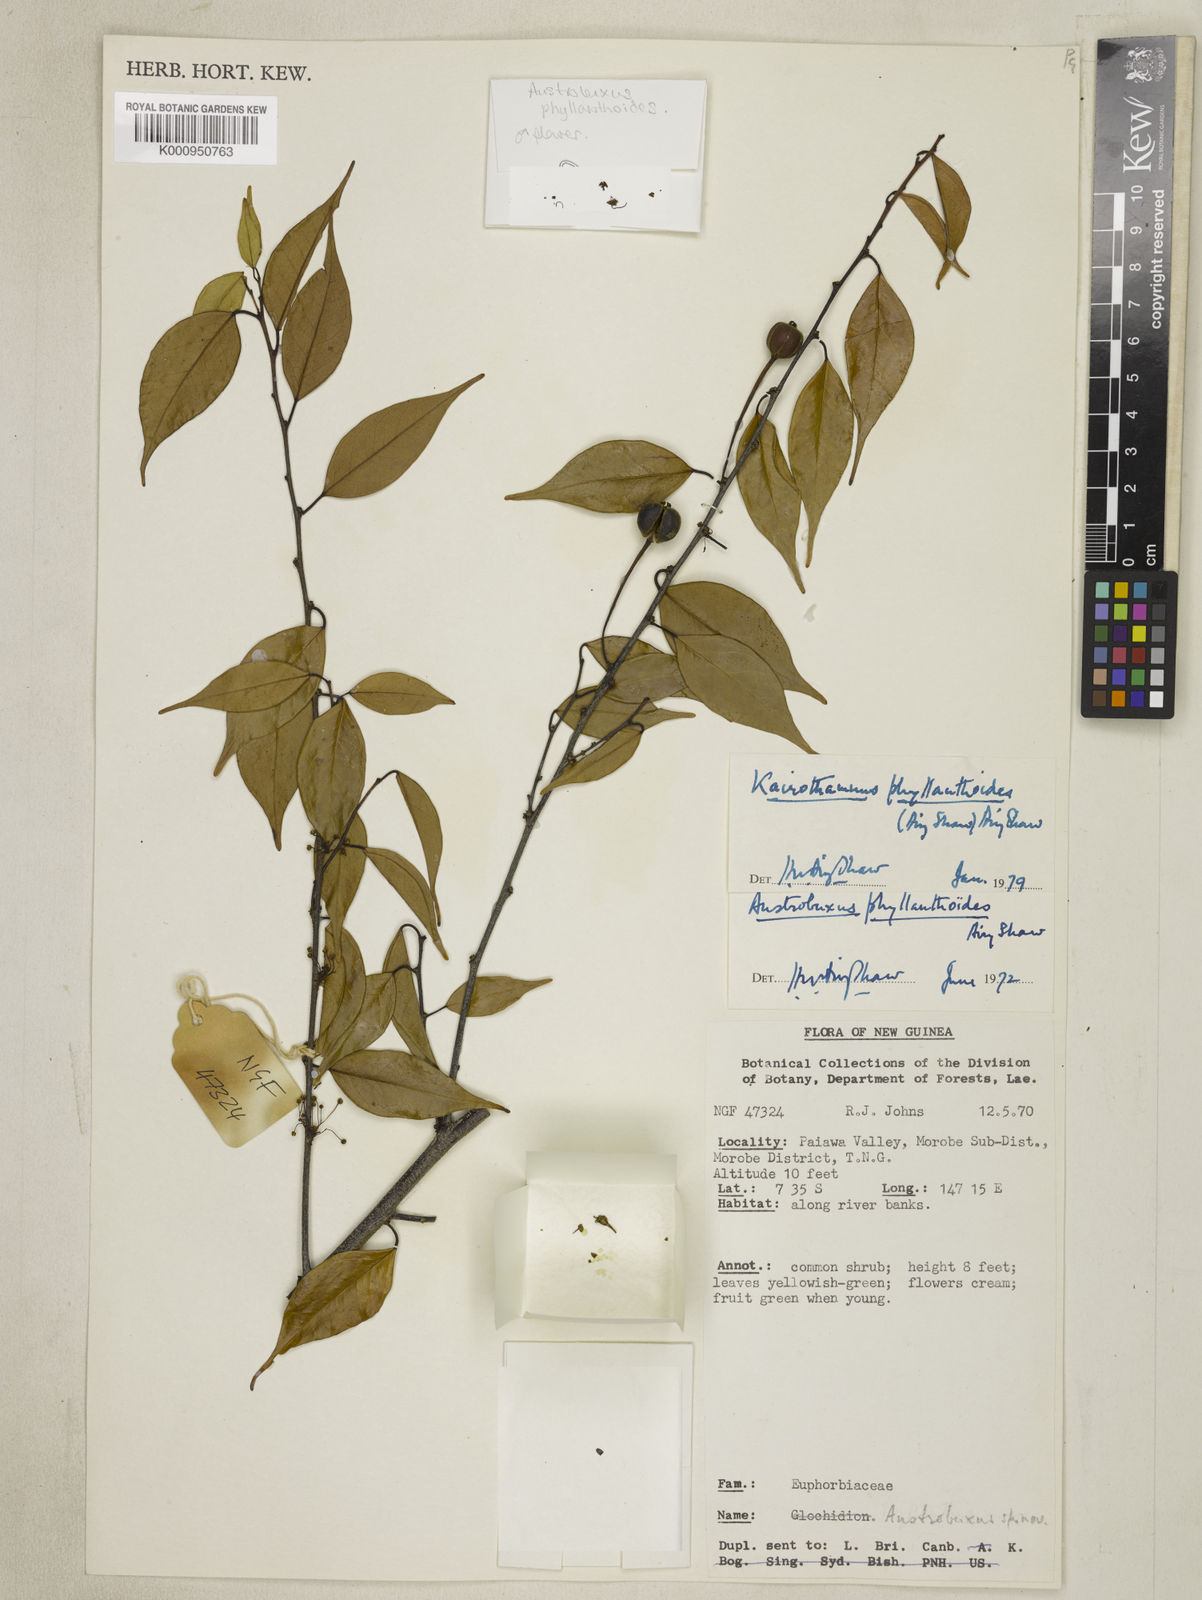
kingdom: Plantae
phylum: Tracheophyta
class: Magnoliopsida
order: Malpighiales
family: Picrodendraceae
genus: Kairothamnus
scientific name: Kairothamnus phyllanthoides
